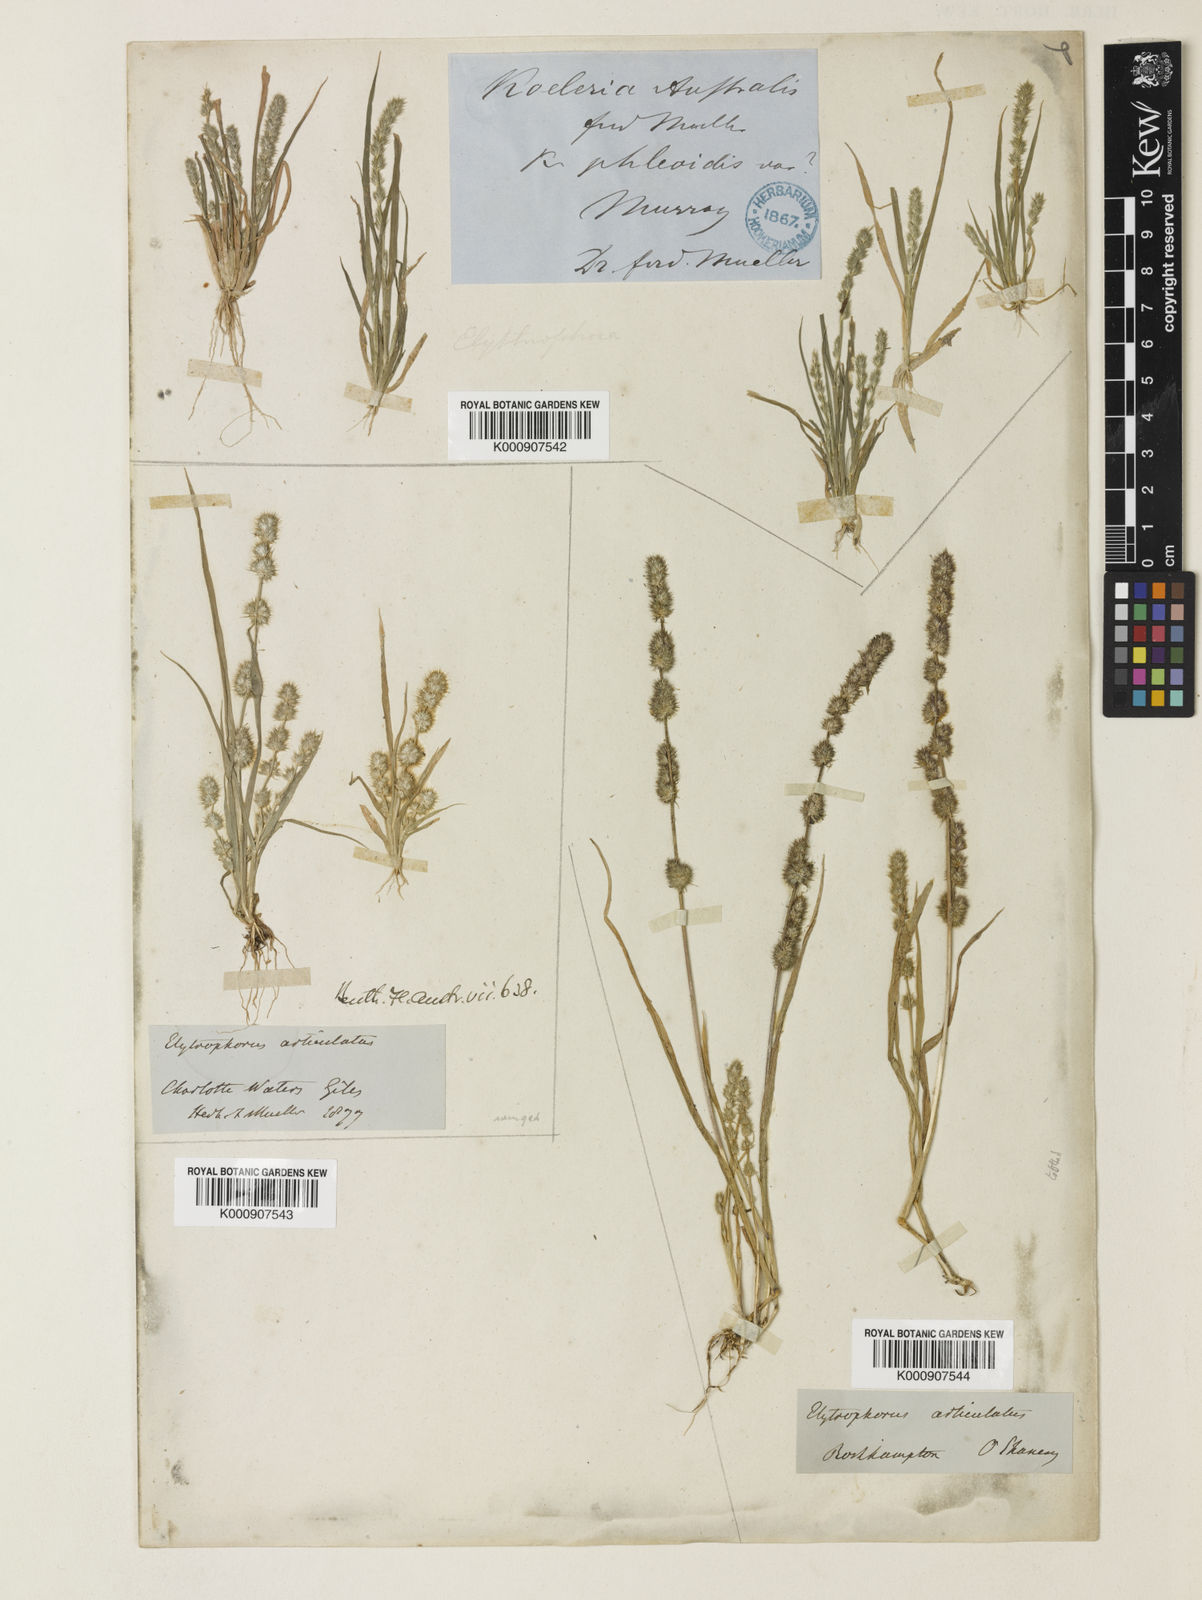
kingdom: Plantae
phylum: Tracheophyta
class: Liliopsida
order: Poales
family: Poaceae
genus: Elytrophorus
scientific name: Elytrophorus spicatus
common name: Spike grass
